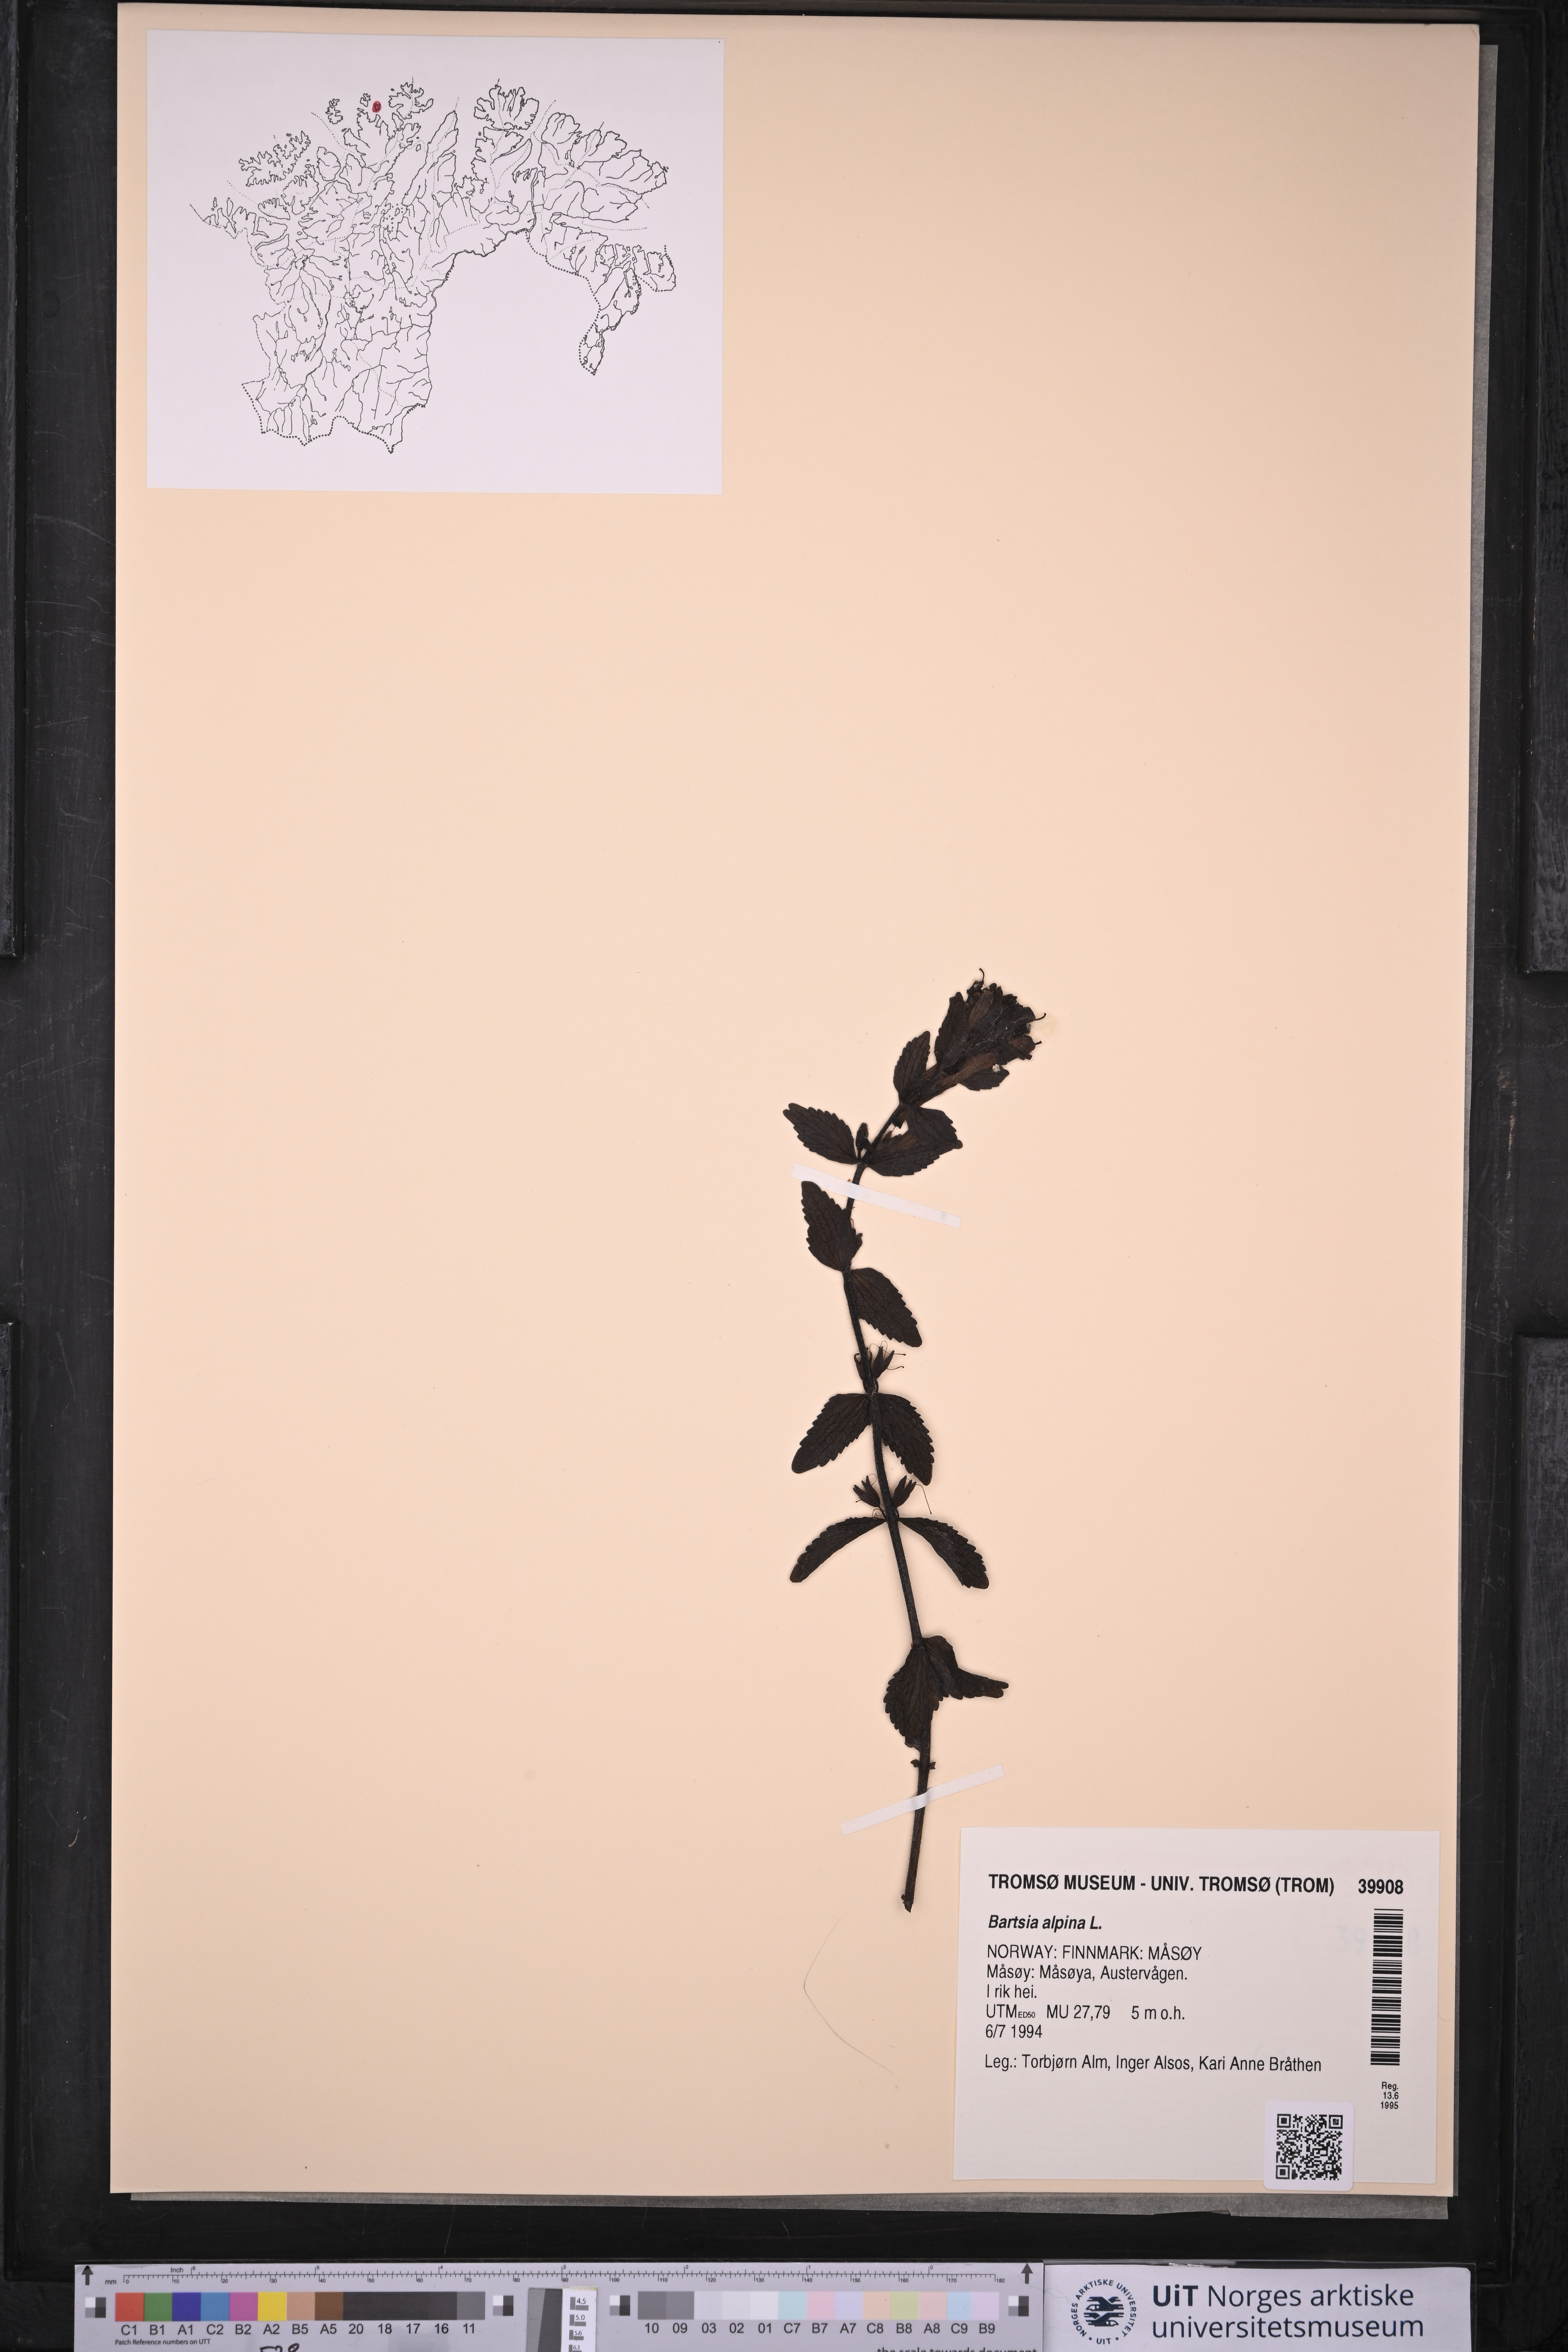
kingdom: Plantae
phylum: Tracheophyta
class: Magnoliopsida
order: Lamiales
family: Orobanchaceae
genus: Bartsia
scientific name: Bartsia alpina
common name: Alpine bartsia
